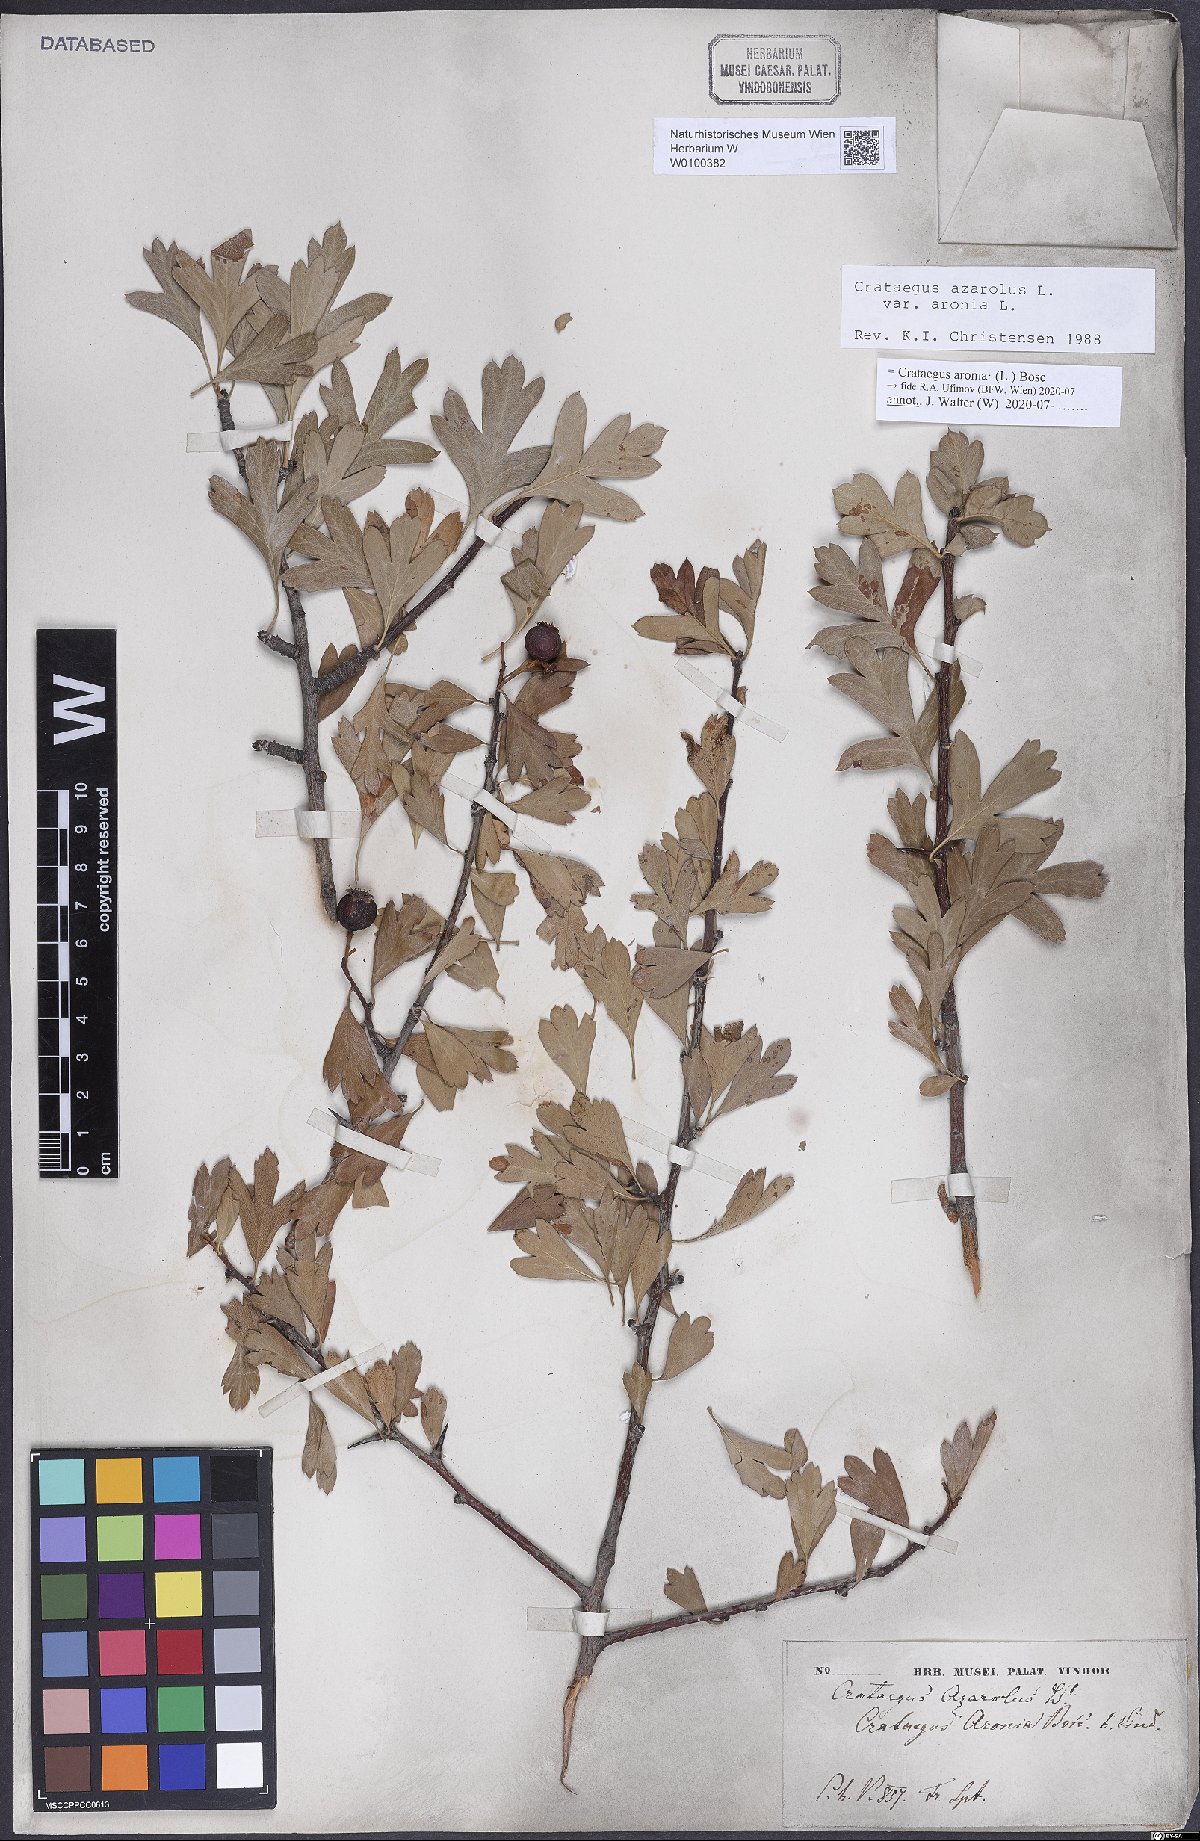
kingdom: Plantae
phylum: Tracheophyta
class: Magnoliopsida
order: Rosales
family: Rosaceae
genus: Crataegus
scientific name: Crataegus azarolus
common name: Azarole
